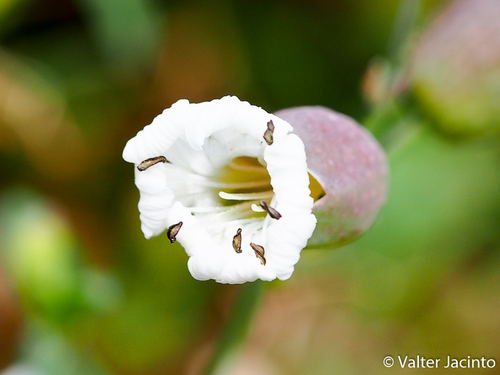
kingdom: Plantae
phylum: Tracheophyta
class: Magnoliopsida
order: Caryophyllales
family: Caryophyllaceae
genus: Silene
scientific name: Silene uniflora
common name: Sea campion
